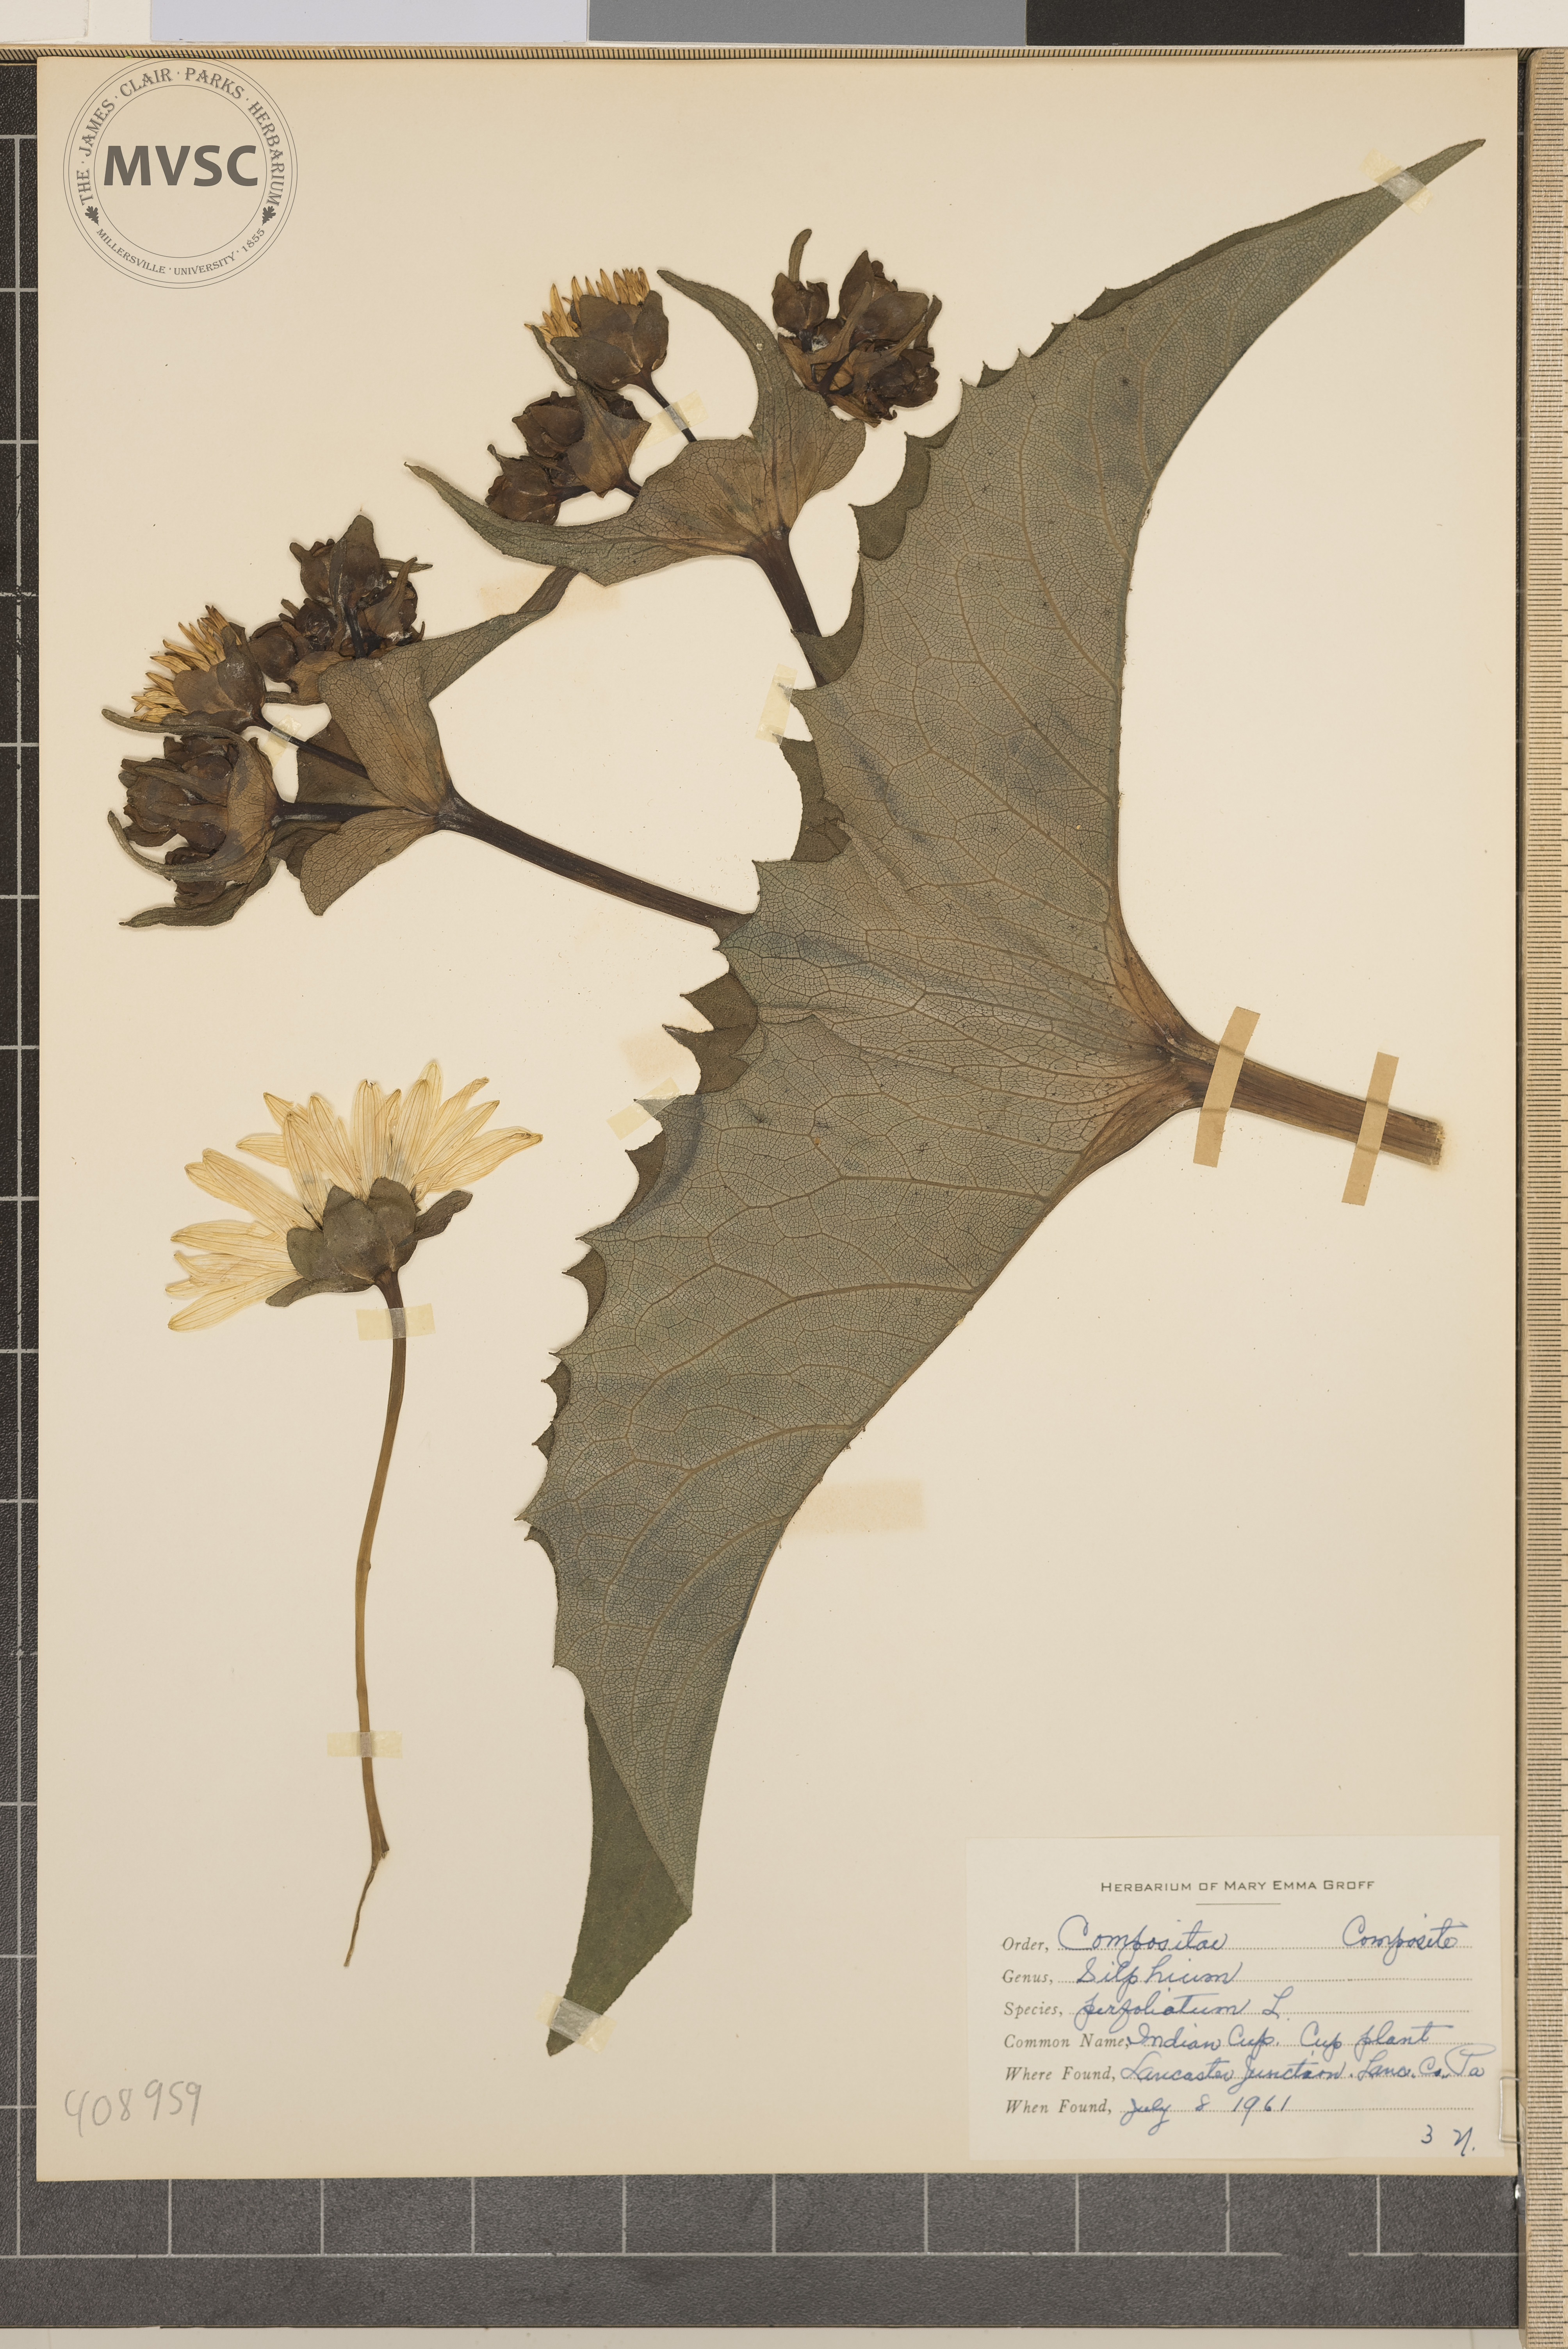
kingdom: Plantae
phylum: Tracheophyta
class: Magnoliopsida
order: Asterales
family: Asteraceae
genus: Silphium
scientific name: Silphium perfoliatum
